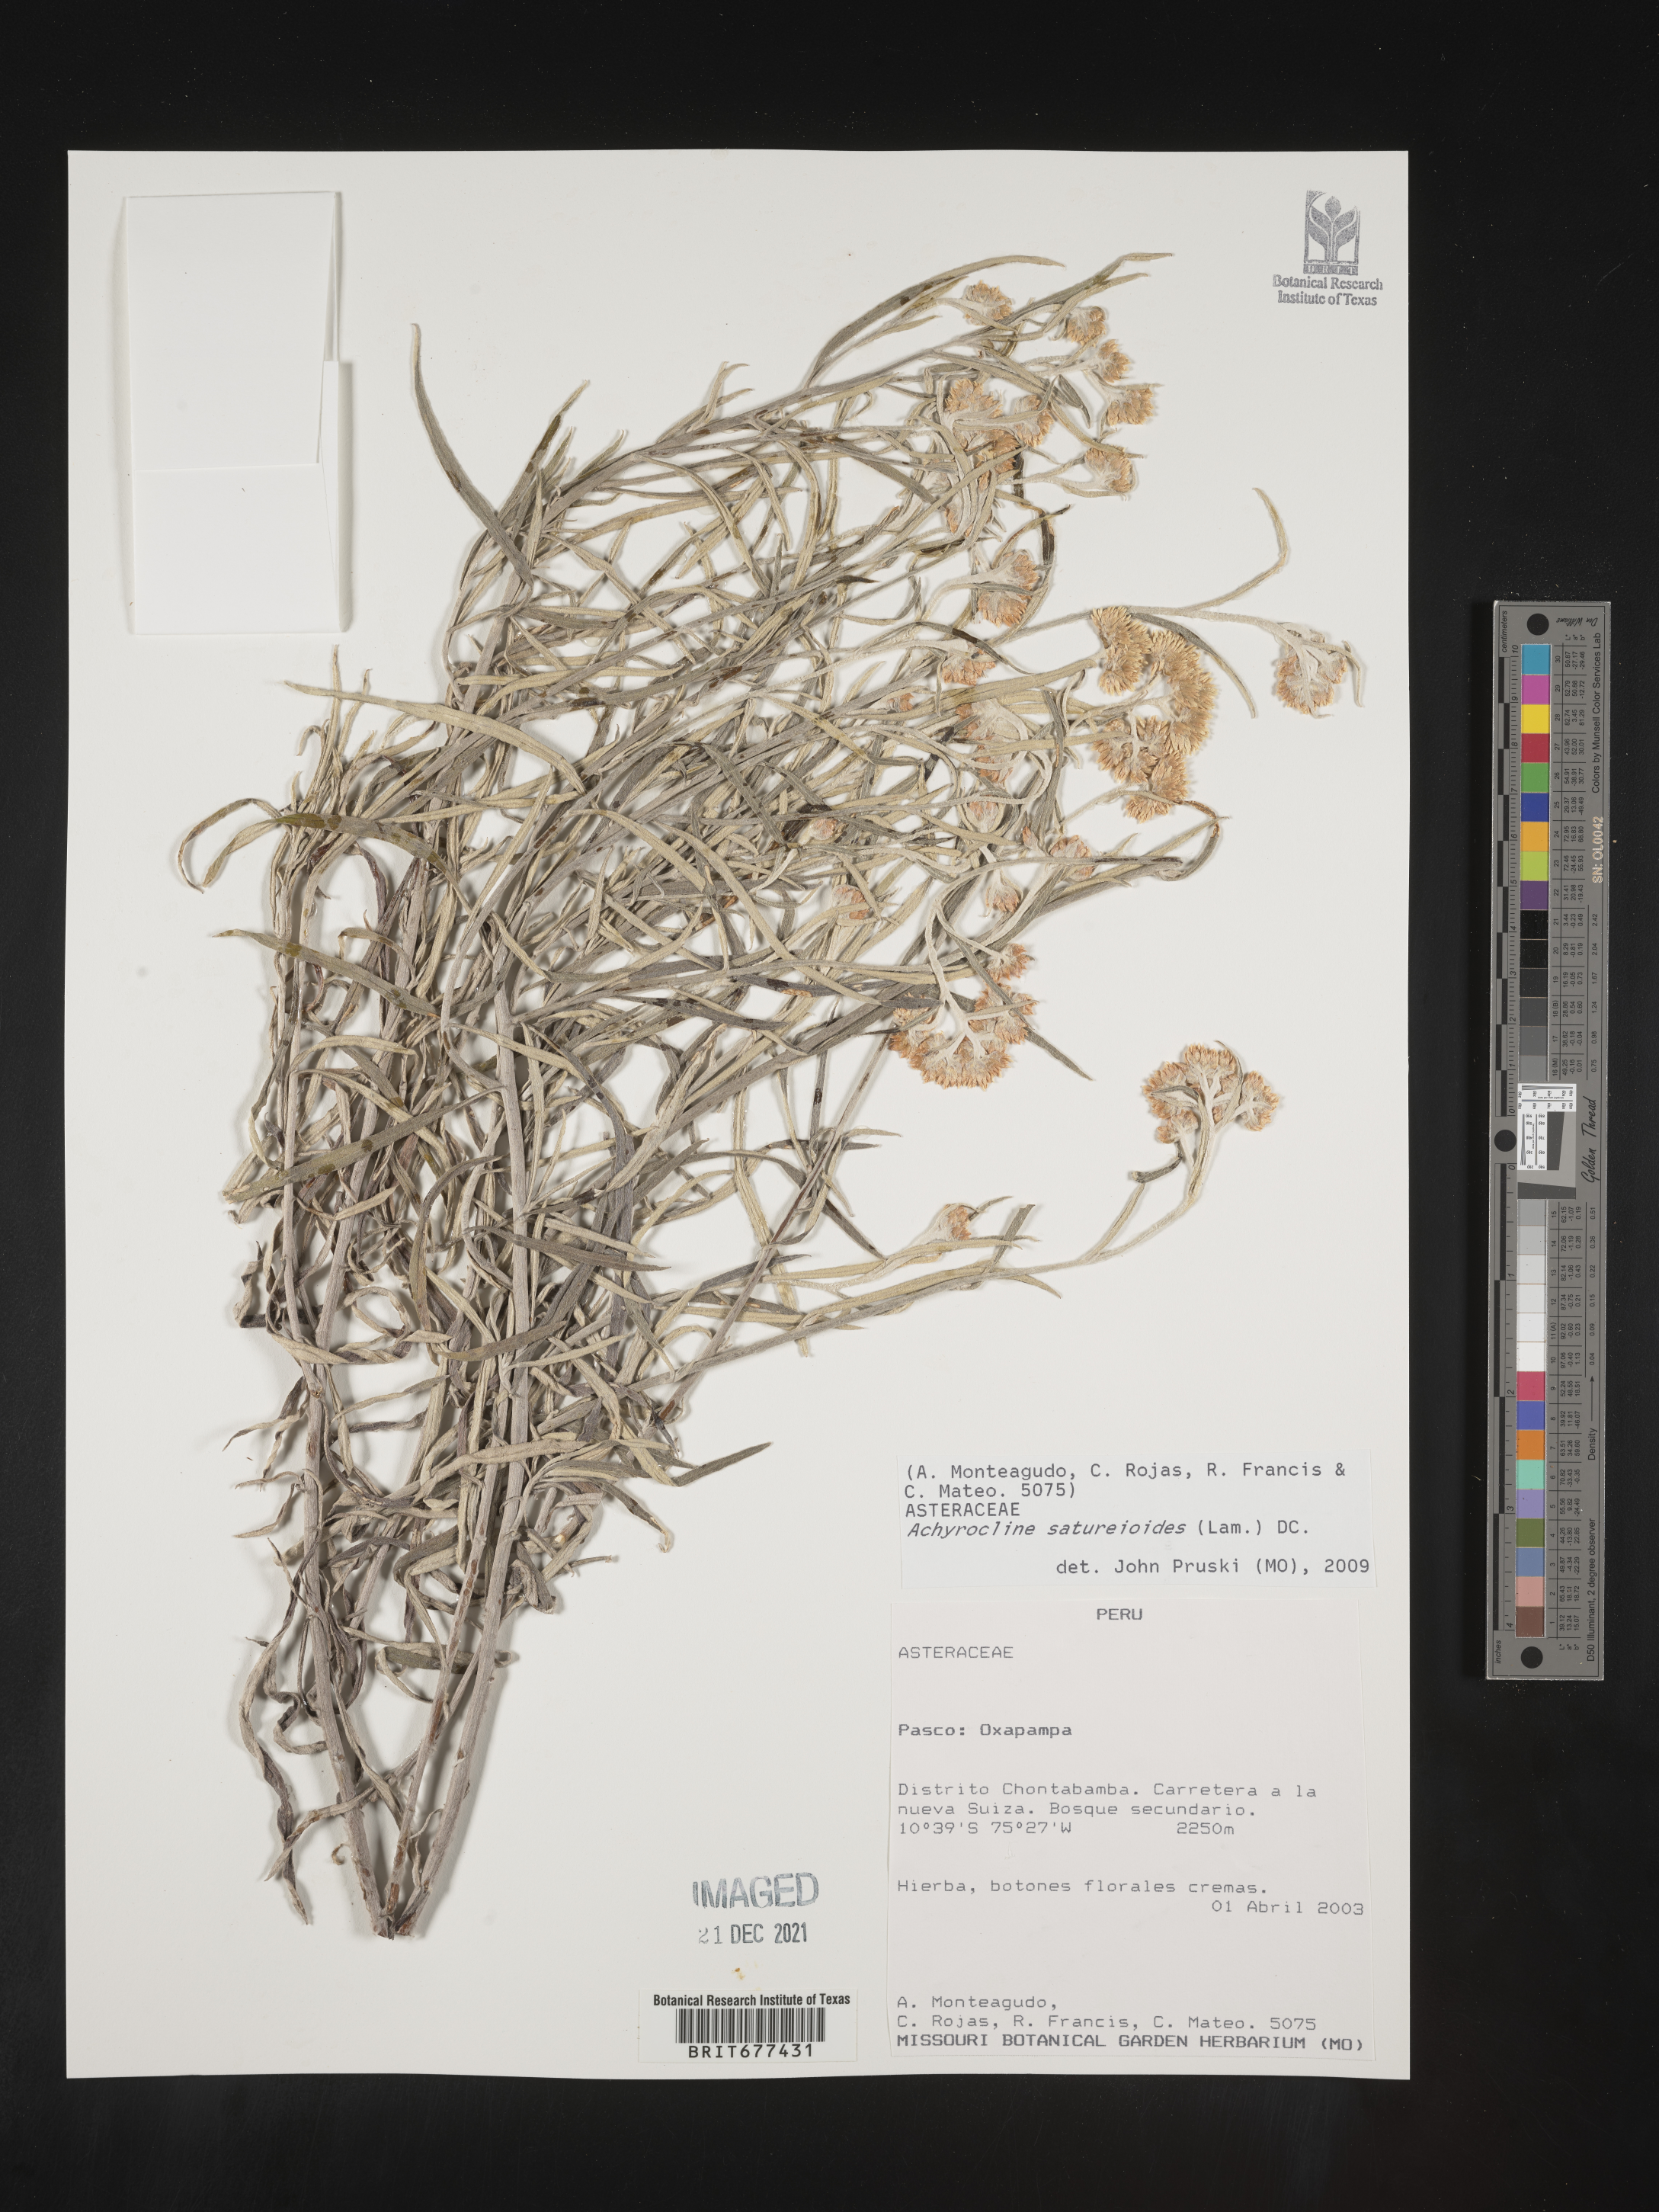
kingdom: Plantae
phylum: Tracheophyta
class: Magnoliopsida
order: Asterales
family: Asteraceae
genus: Achyrocline
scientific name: Achyrocline
